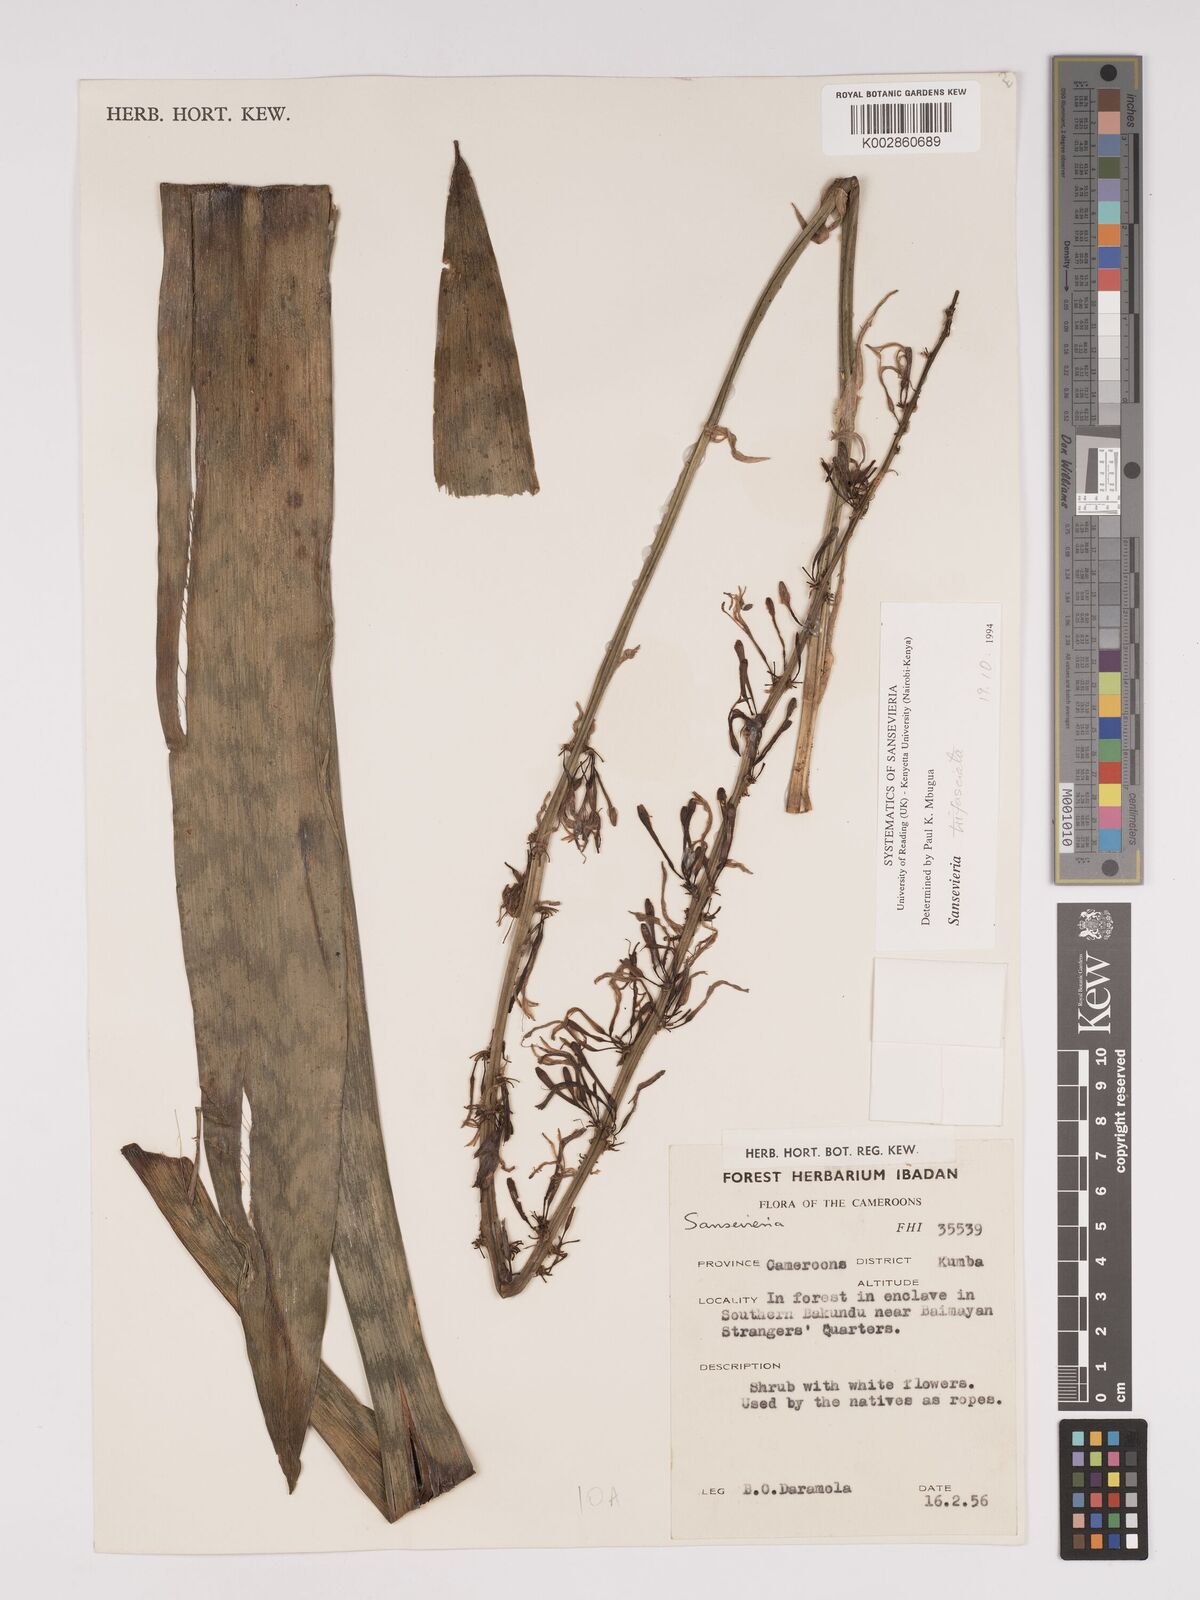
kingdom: Plantae
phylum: Tracheophyta
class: Liliopsida
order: Asparagales
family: Asparagaceae
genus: Dracaena
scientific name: Dracaena liberica
